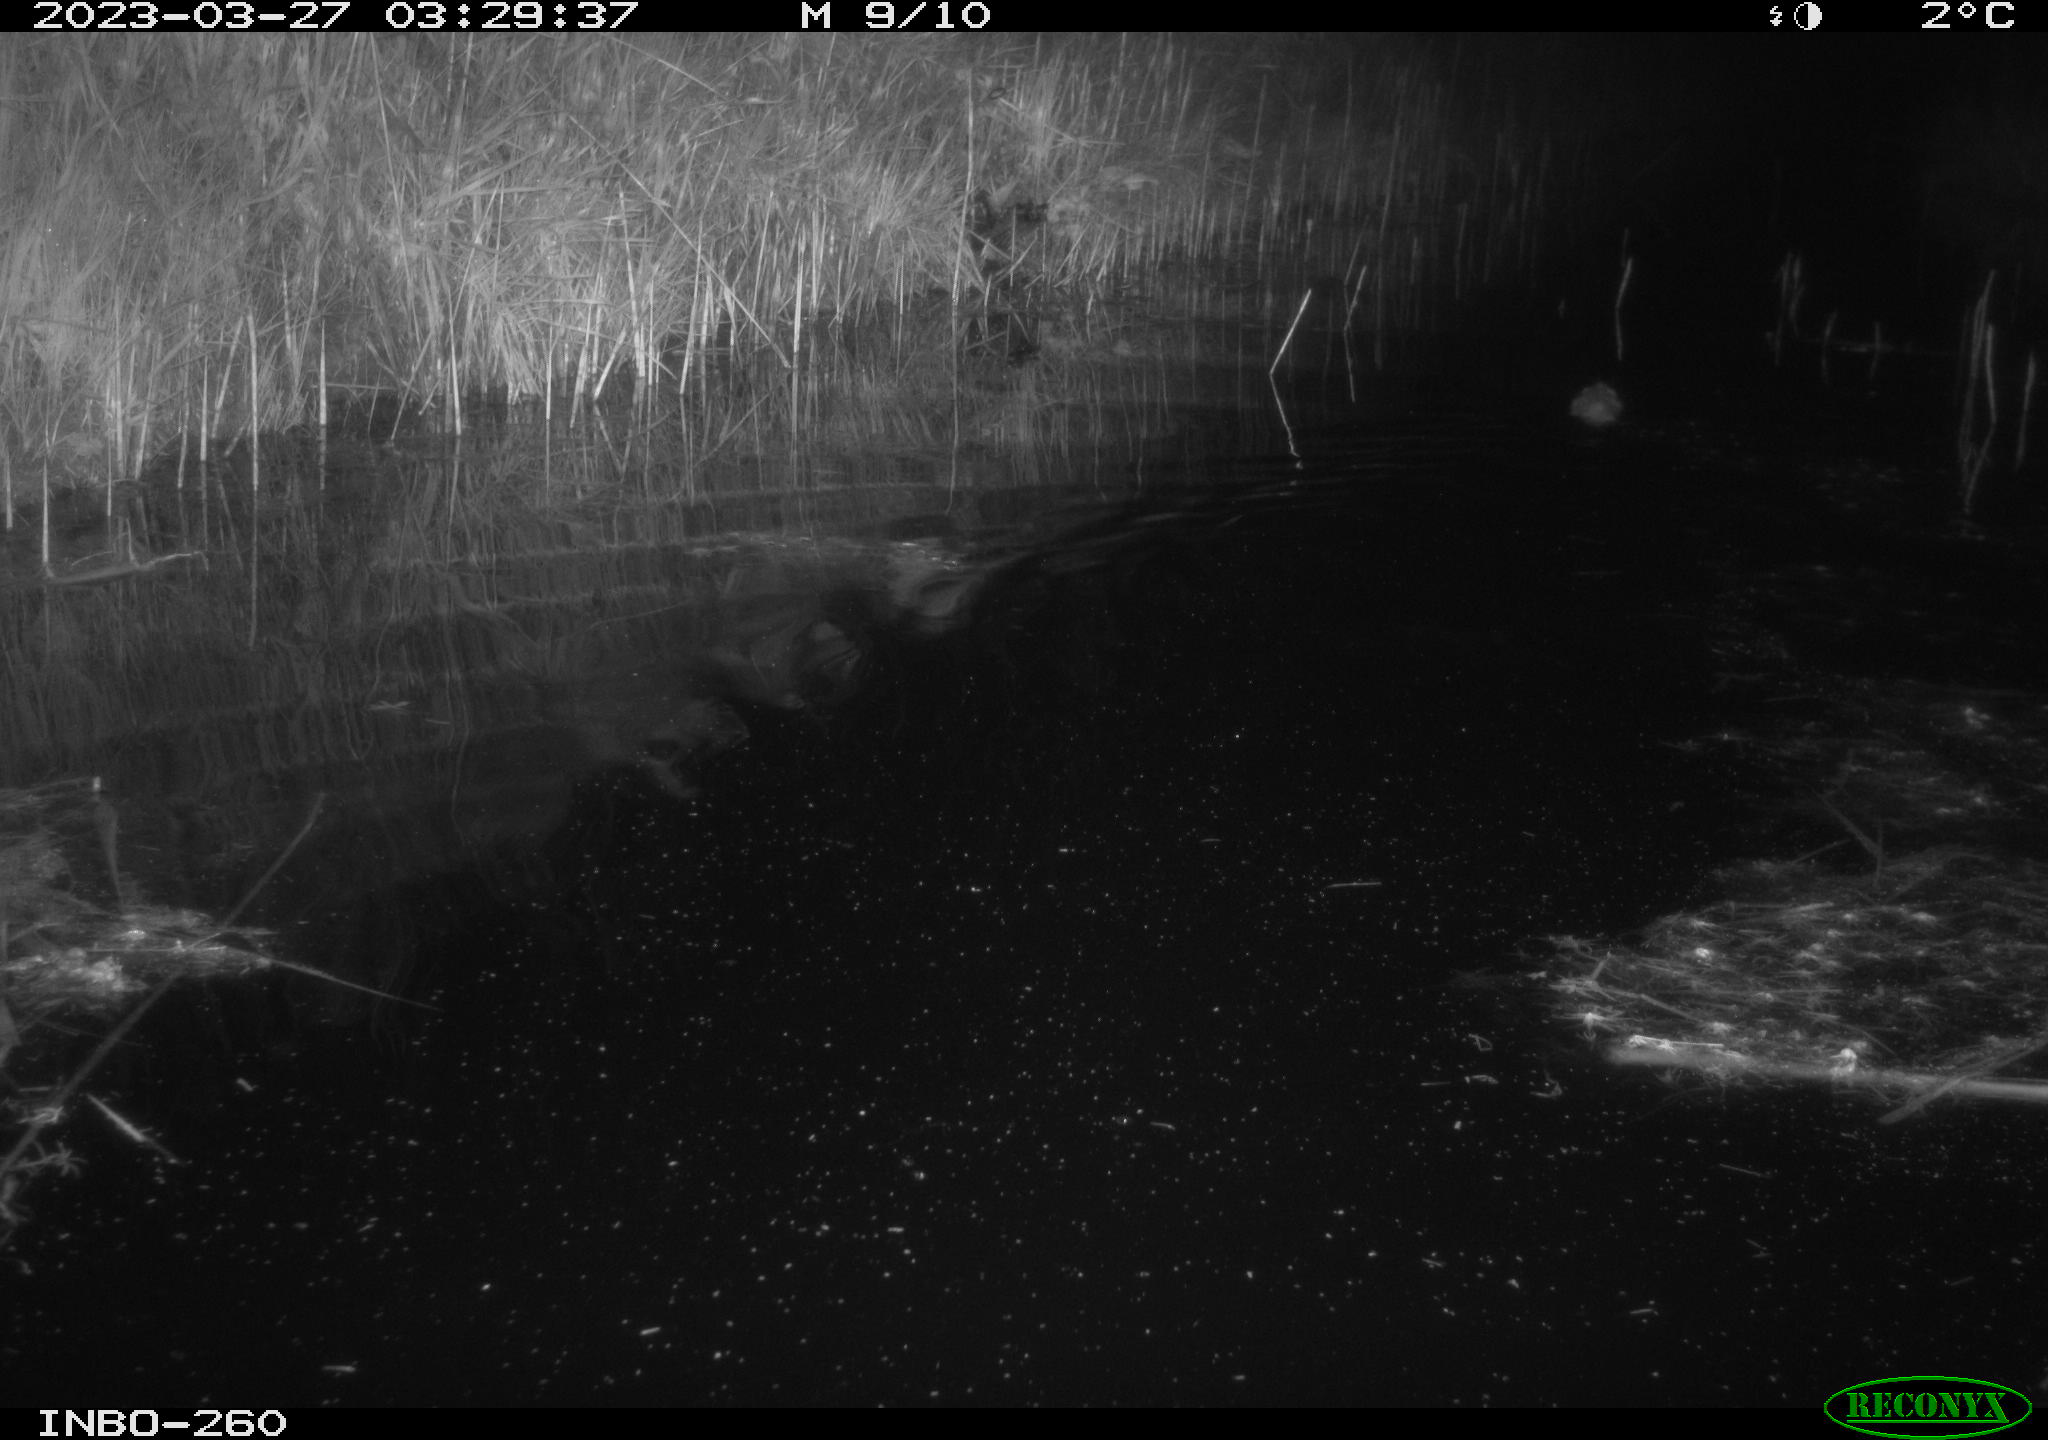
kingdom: Animalia
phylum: Chordata
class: Mammalia
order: Rodentia
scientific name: Rodentia
